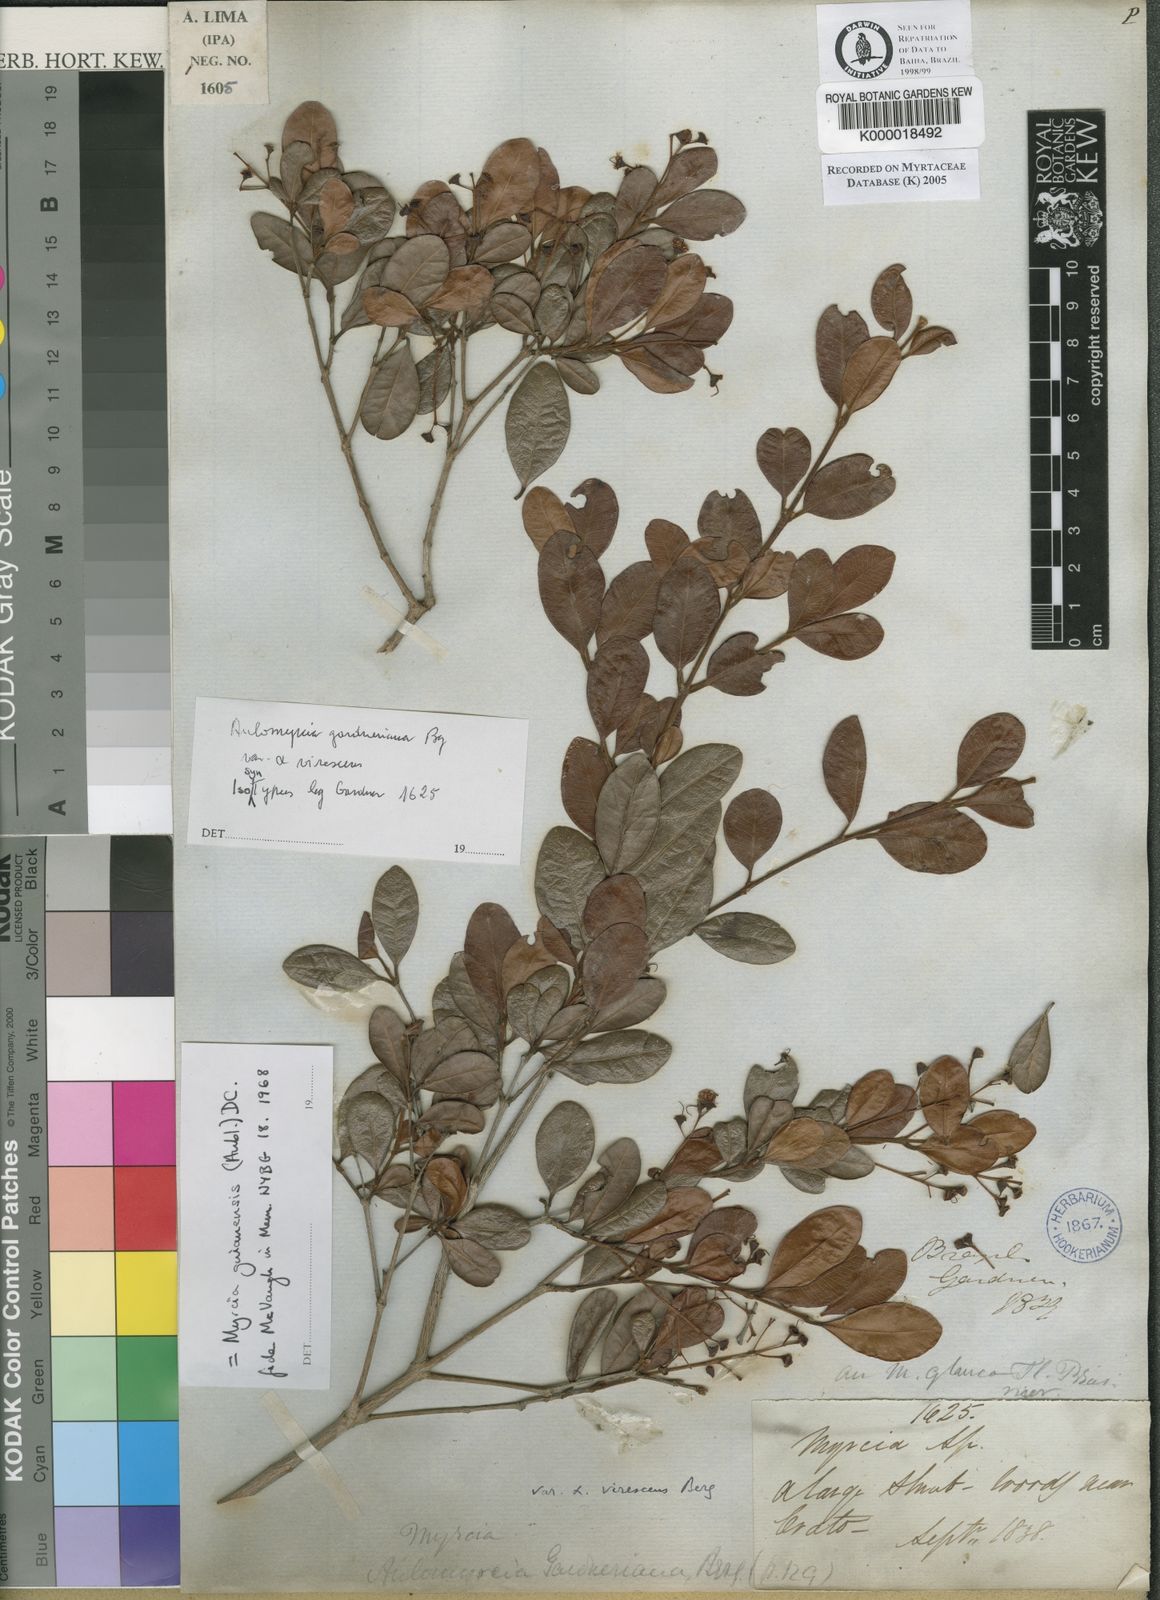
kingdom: Plantae
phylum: Tracheophyta
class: Magnoliopsida
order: Myrtales
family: Myrtaceae
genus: Myrcia
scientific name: Myrcia guianensis
